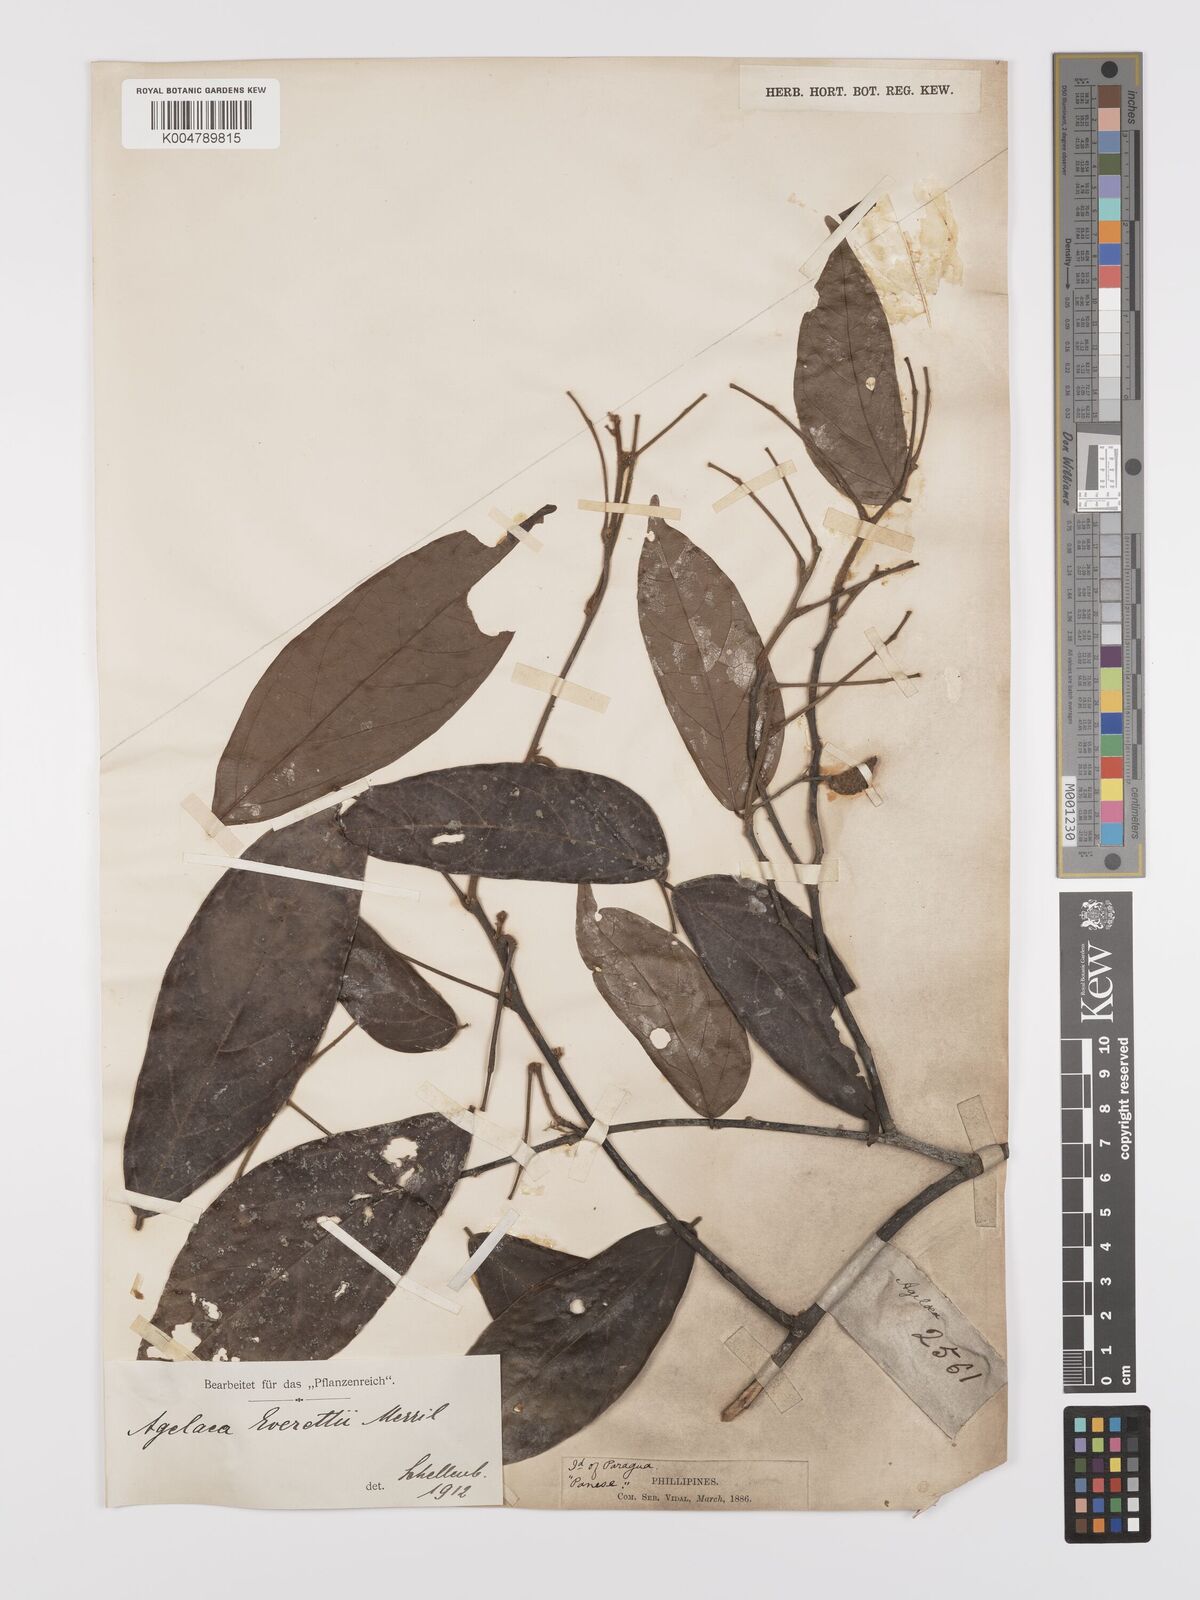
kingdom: Plantae
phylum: Tracheophyta
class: Magnoliopsida
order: Oxalidales
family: Connaraceae
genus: Agelaea
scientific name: Agelaea borneensis
